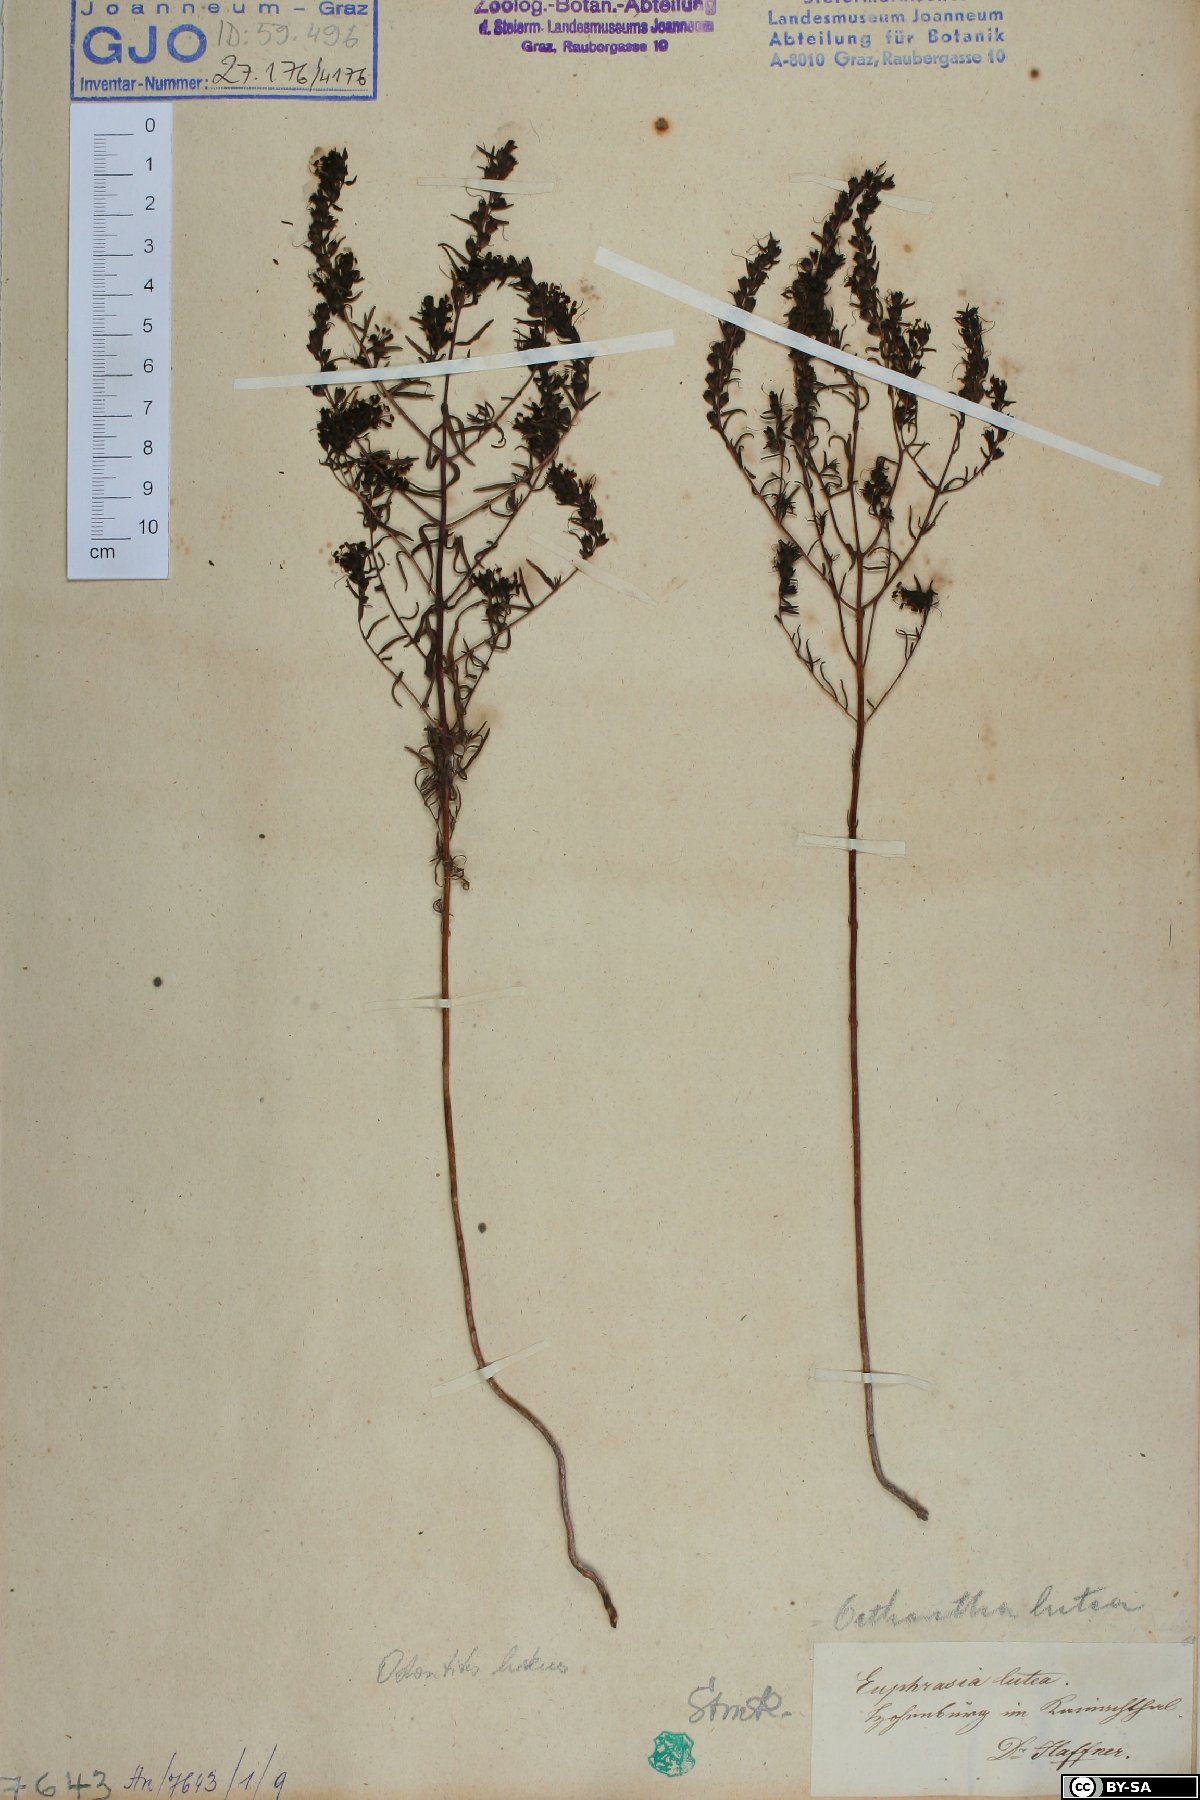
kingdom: Plantae
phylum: Tracheophyta
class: Magnoliopsida
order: Lamiales
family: Orobanchaceae
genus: Odontites
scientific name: Odontites luteus
